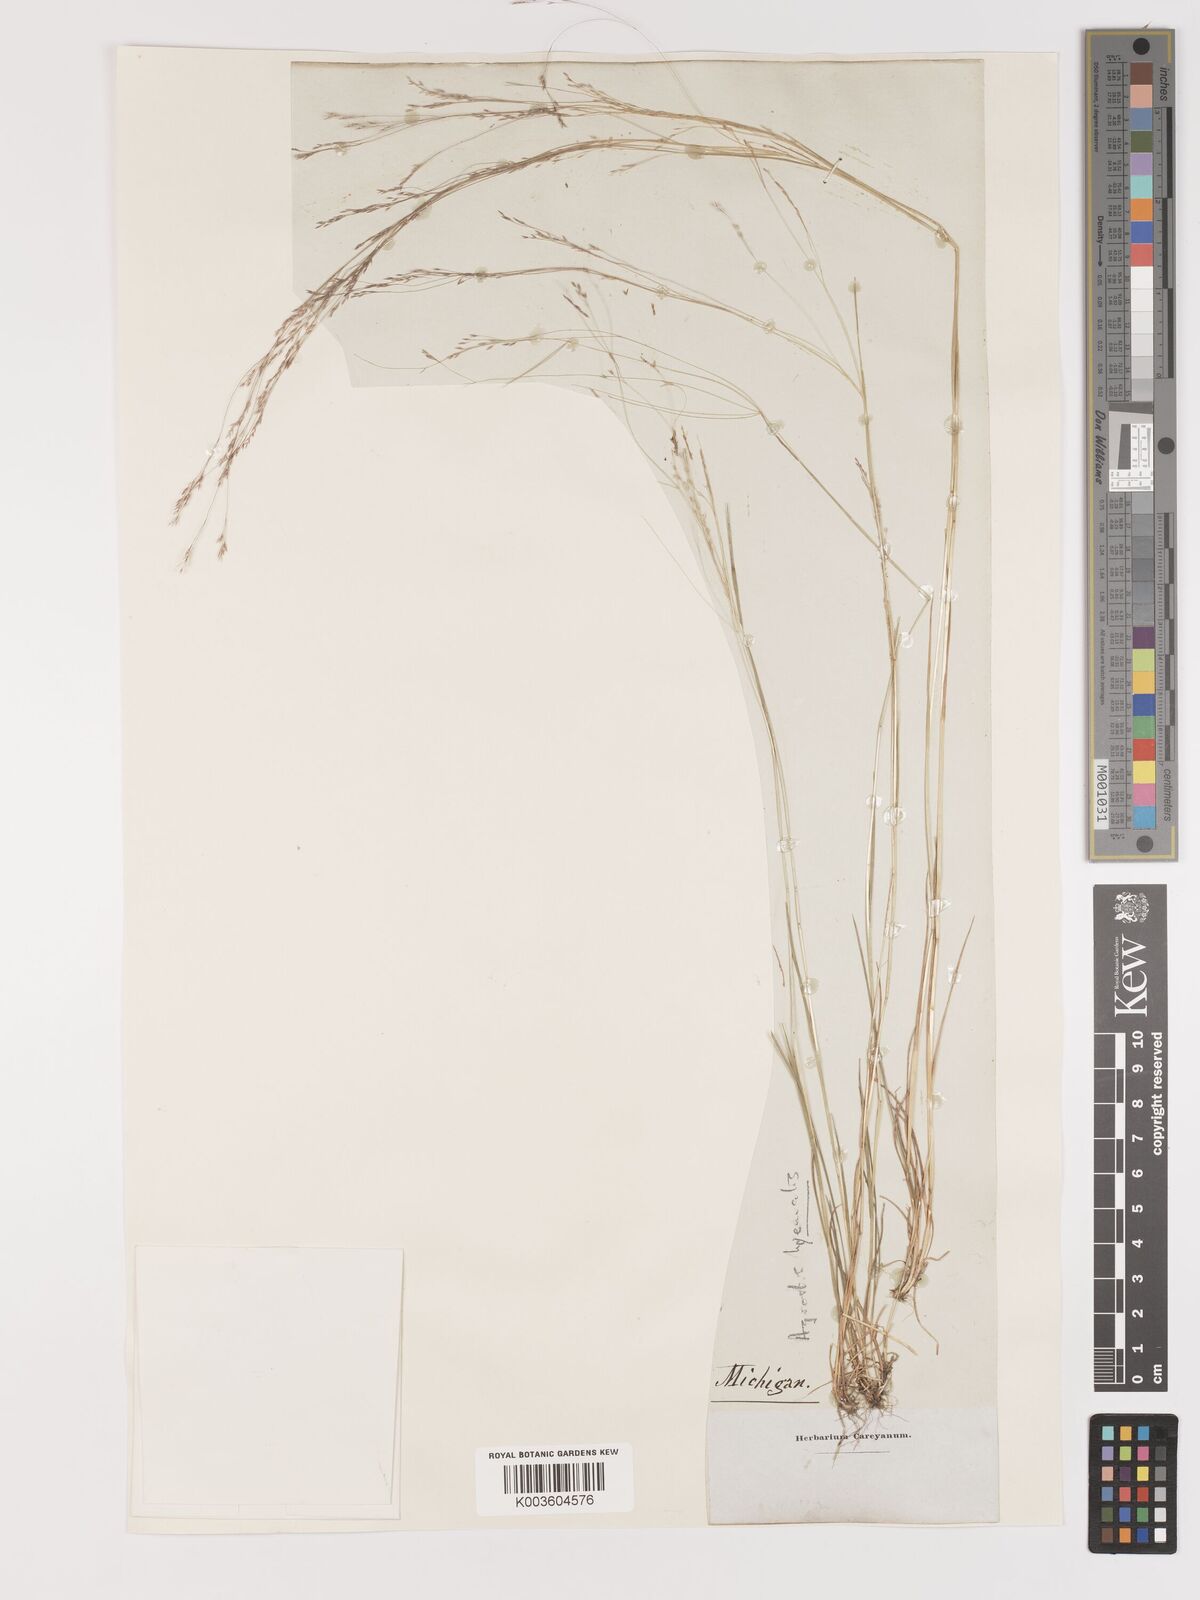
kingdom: Plantae
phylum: Tracheophyta
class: Liliopsida
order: Poales
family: Poaceae
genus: Agrostis
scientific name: Agrostis hyemalis
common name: Small bent
